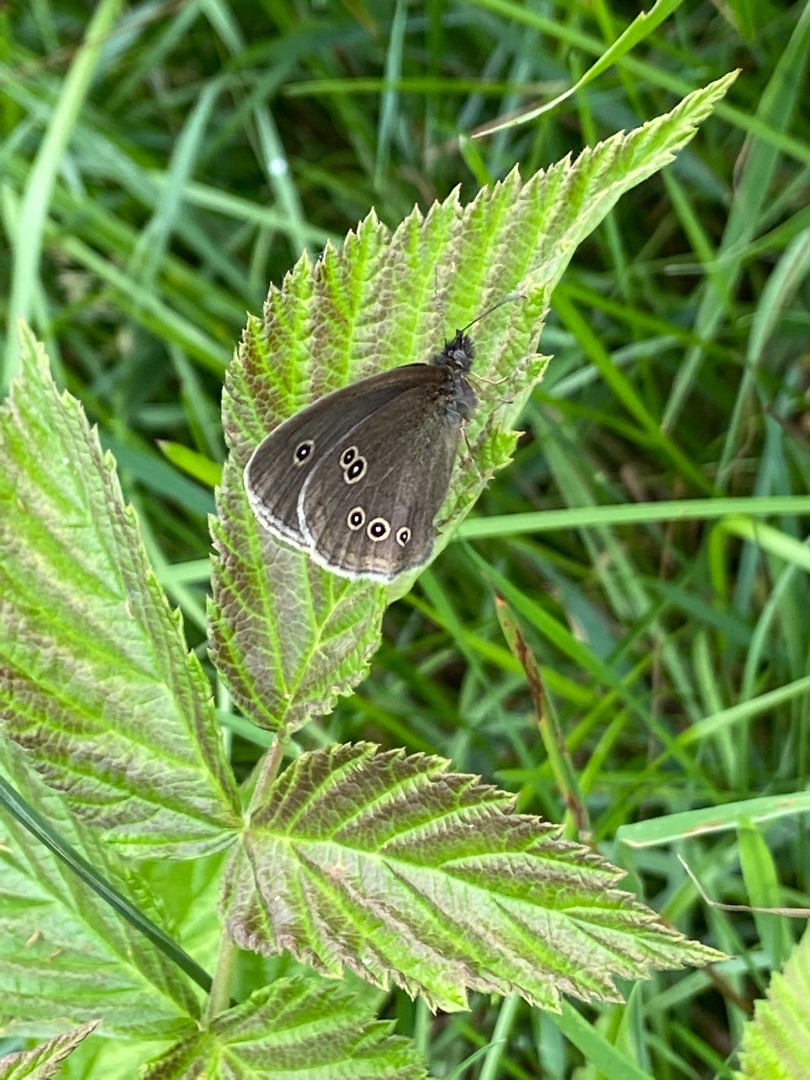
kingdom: Animalia
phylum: Arthropoda
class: Insecta
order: Lepidoptera
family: Nymphalidae
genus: Aphantopus
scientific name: Aphantopus hyperantus
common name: Engrandøje
